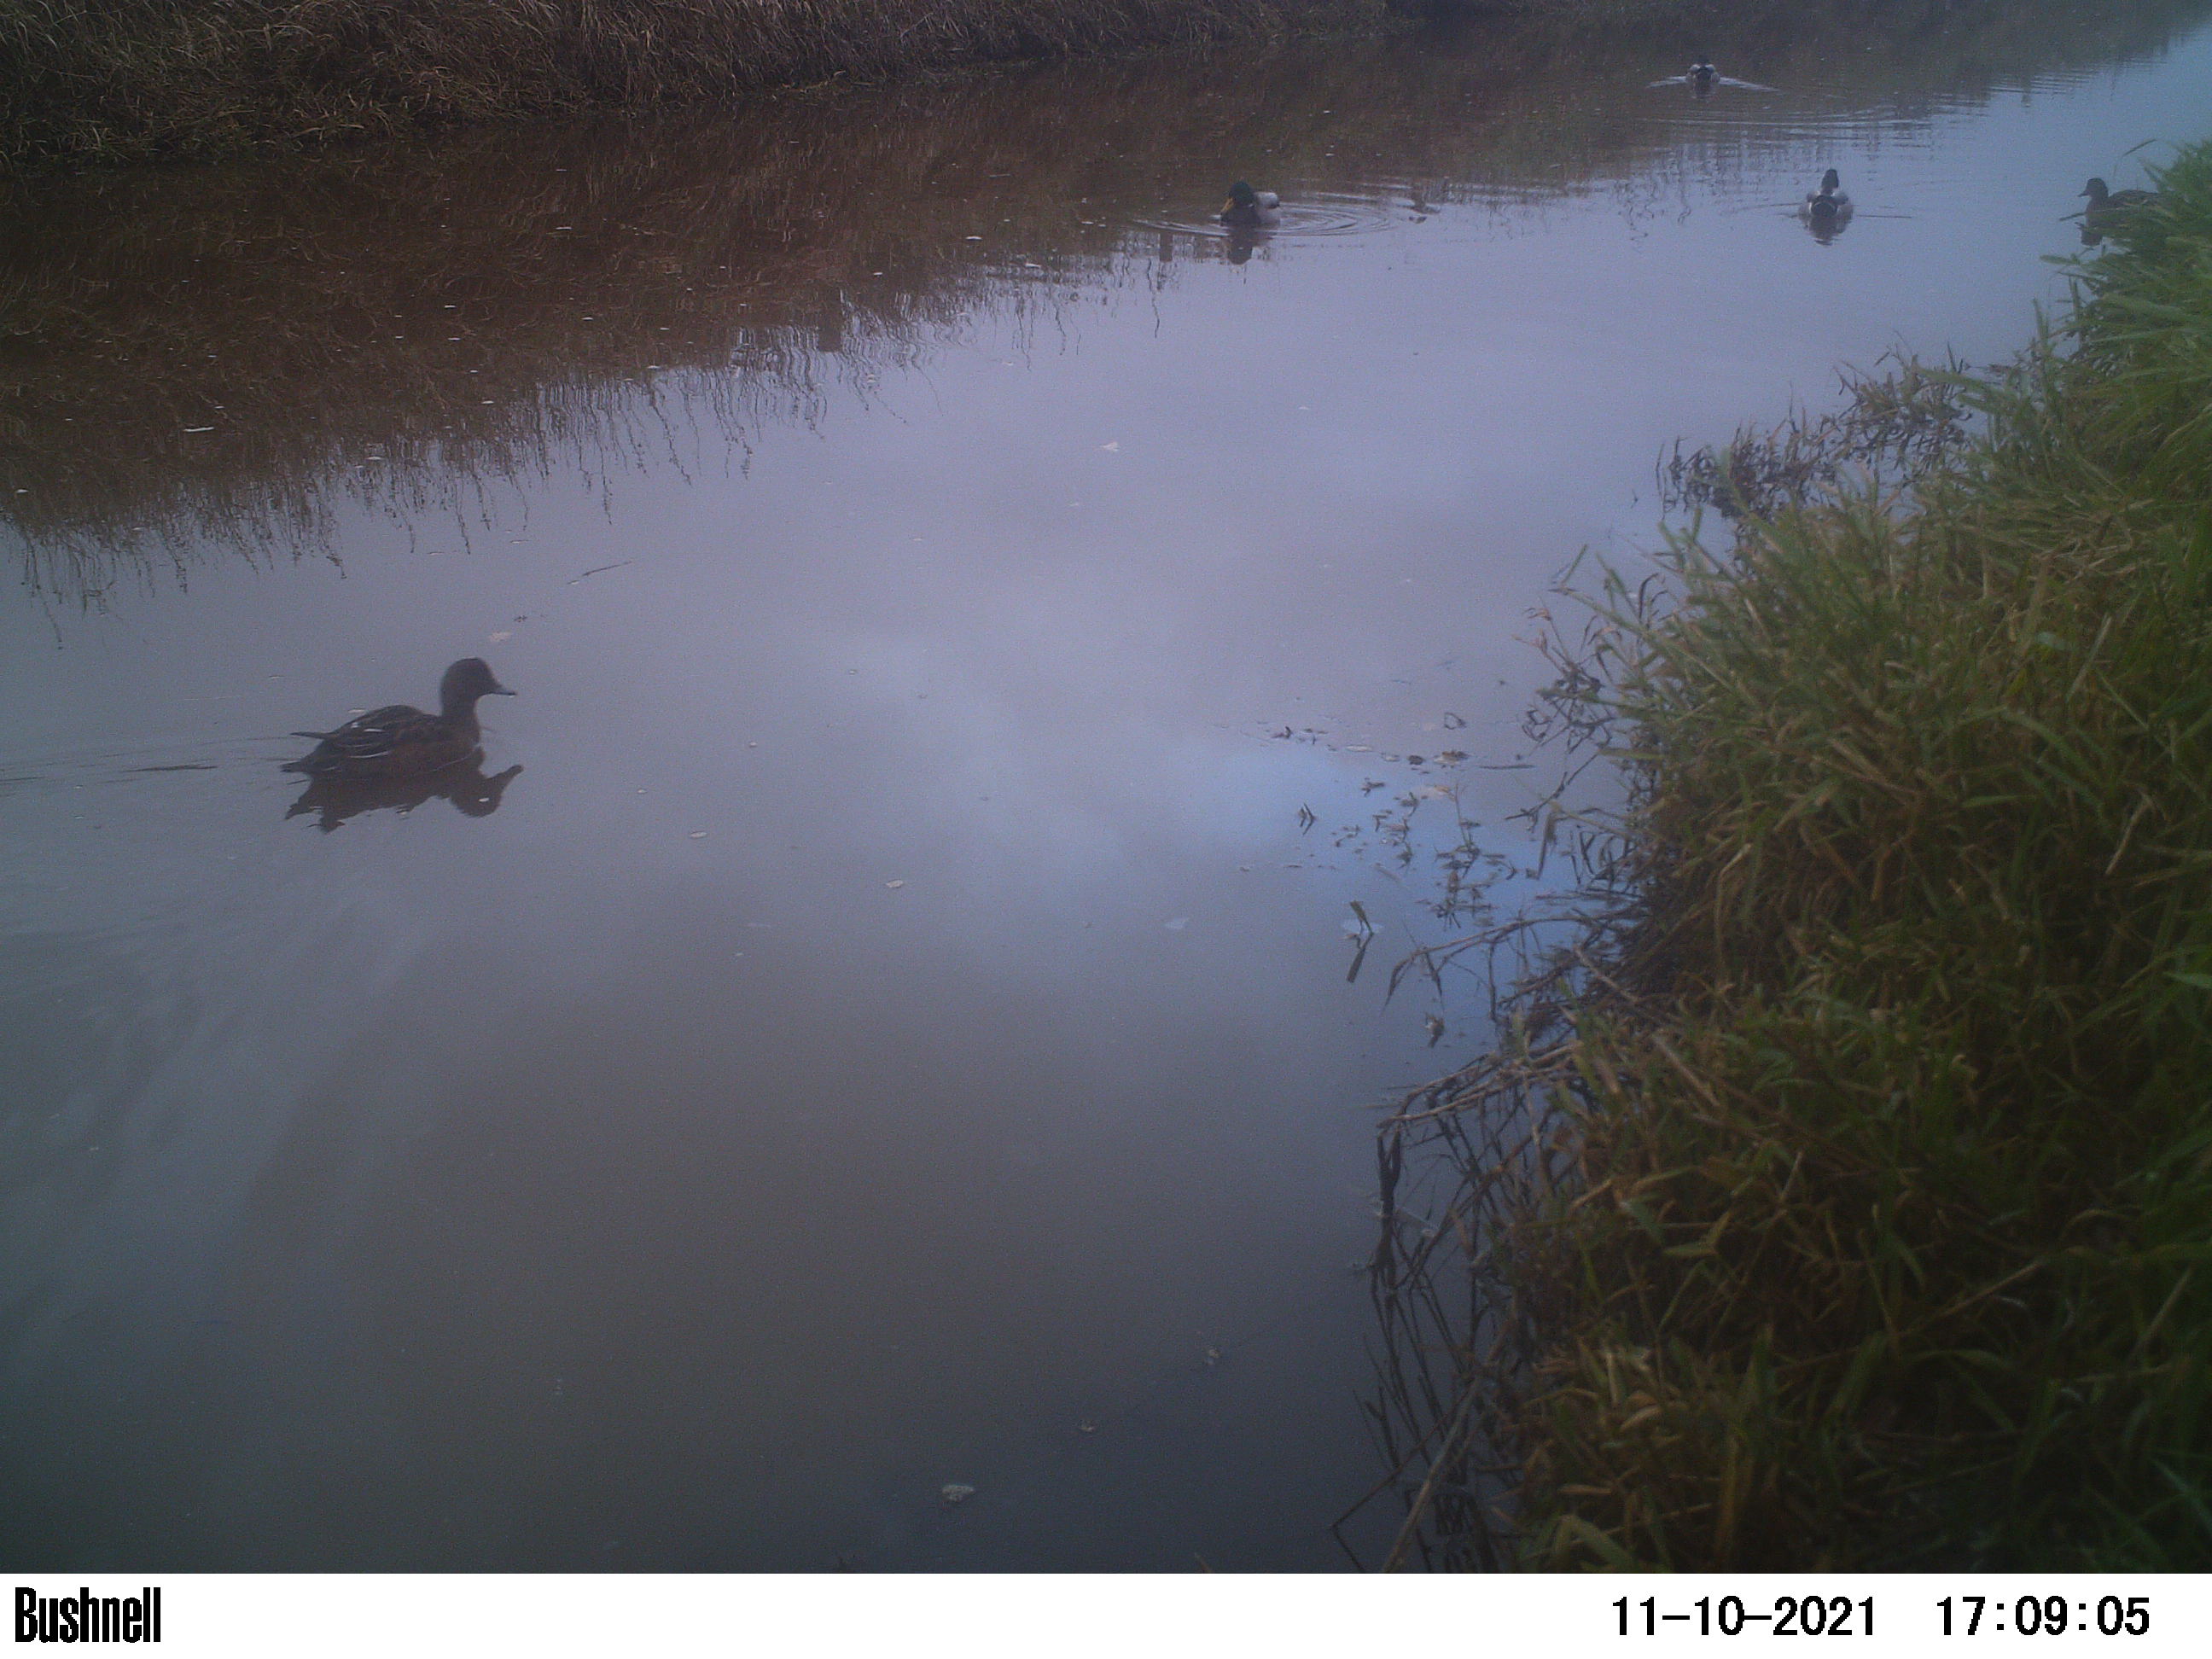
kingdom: Animalia
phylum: Chordata
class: Aves
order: Anseriformes
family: Anatidae
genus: Anas
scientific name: Anas
